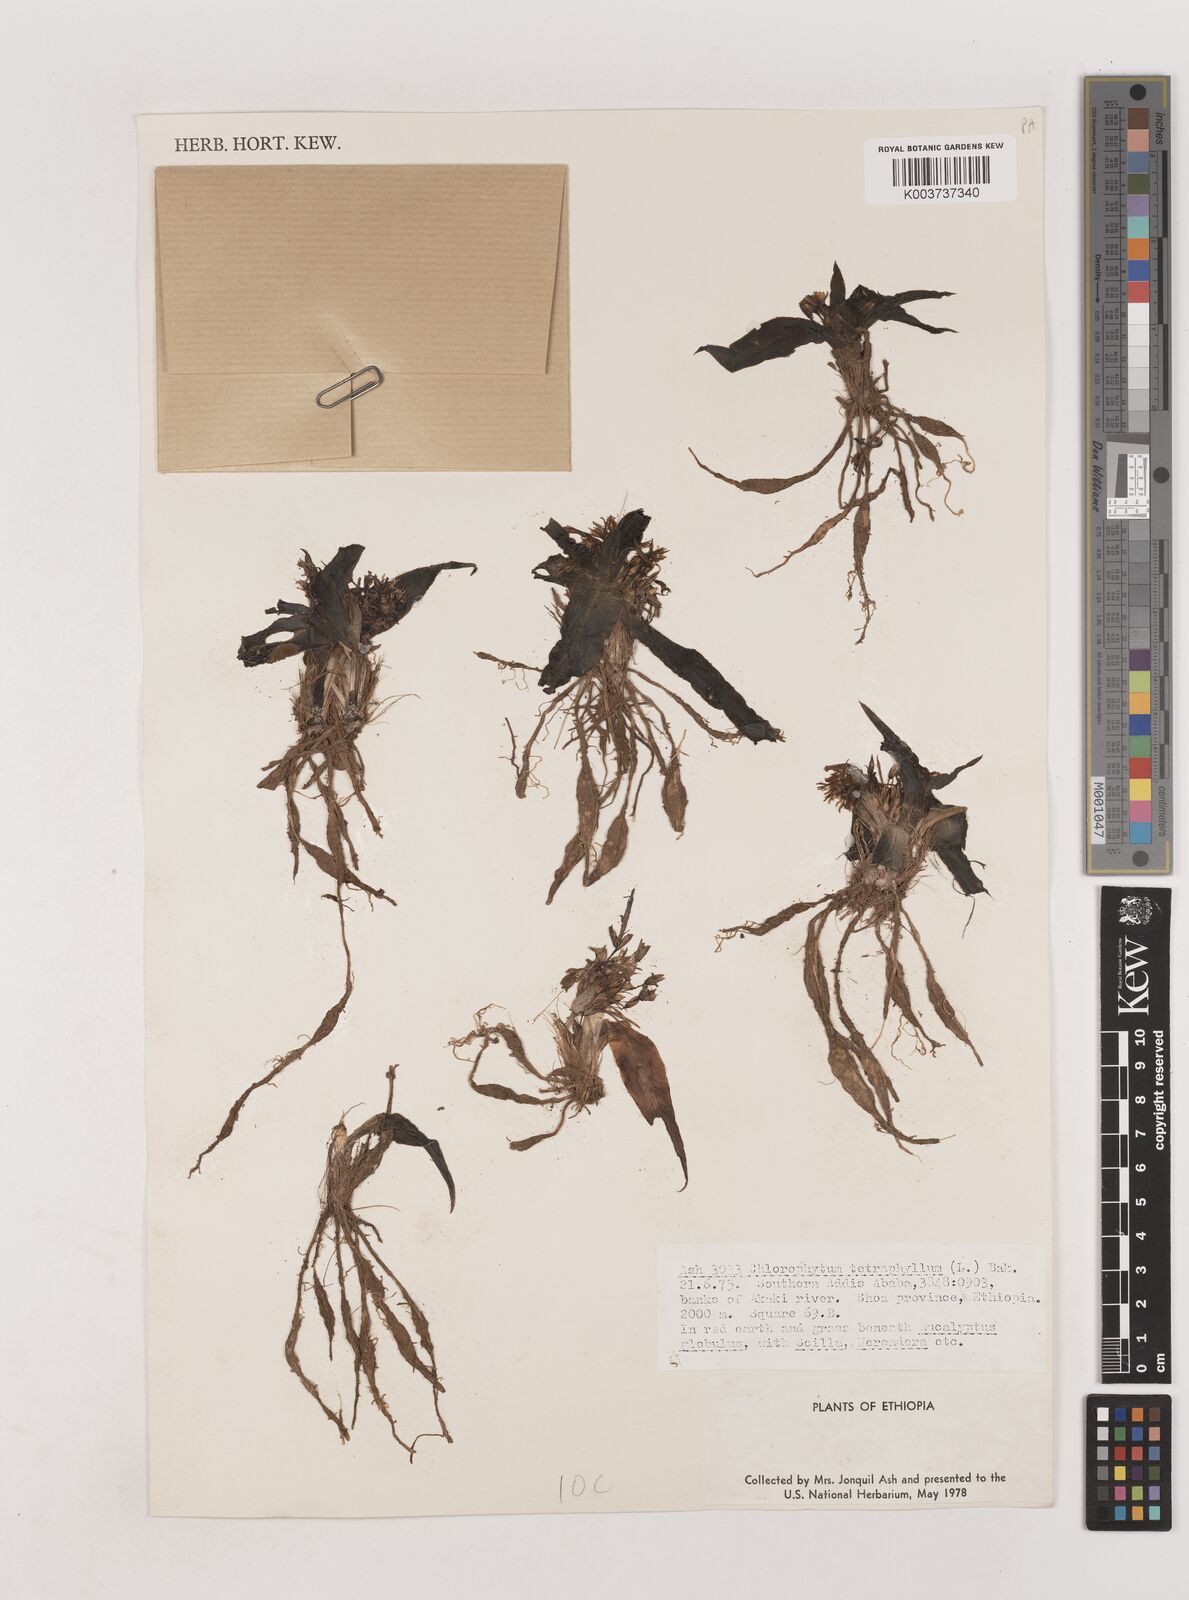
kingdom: Plantae
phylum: Tracheophyta
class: Liliopsida
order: Asparagales
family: Asparagaceae
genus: Chlorophytum
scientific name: Chlorophytum tetraphyllum
